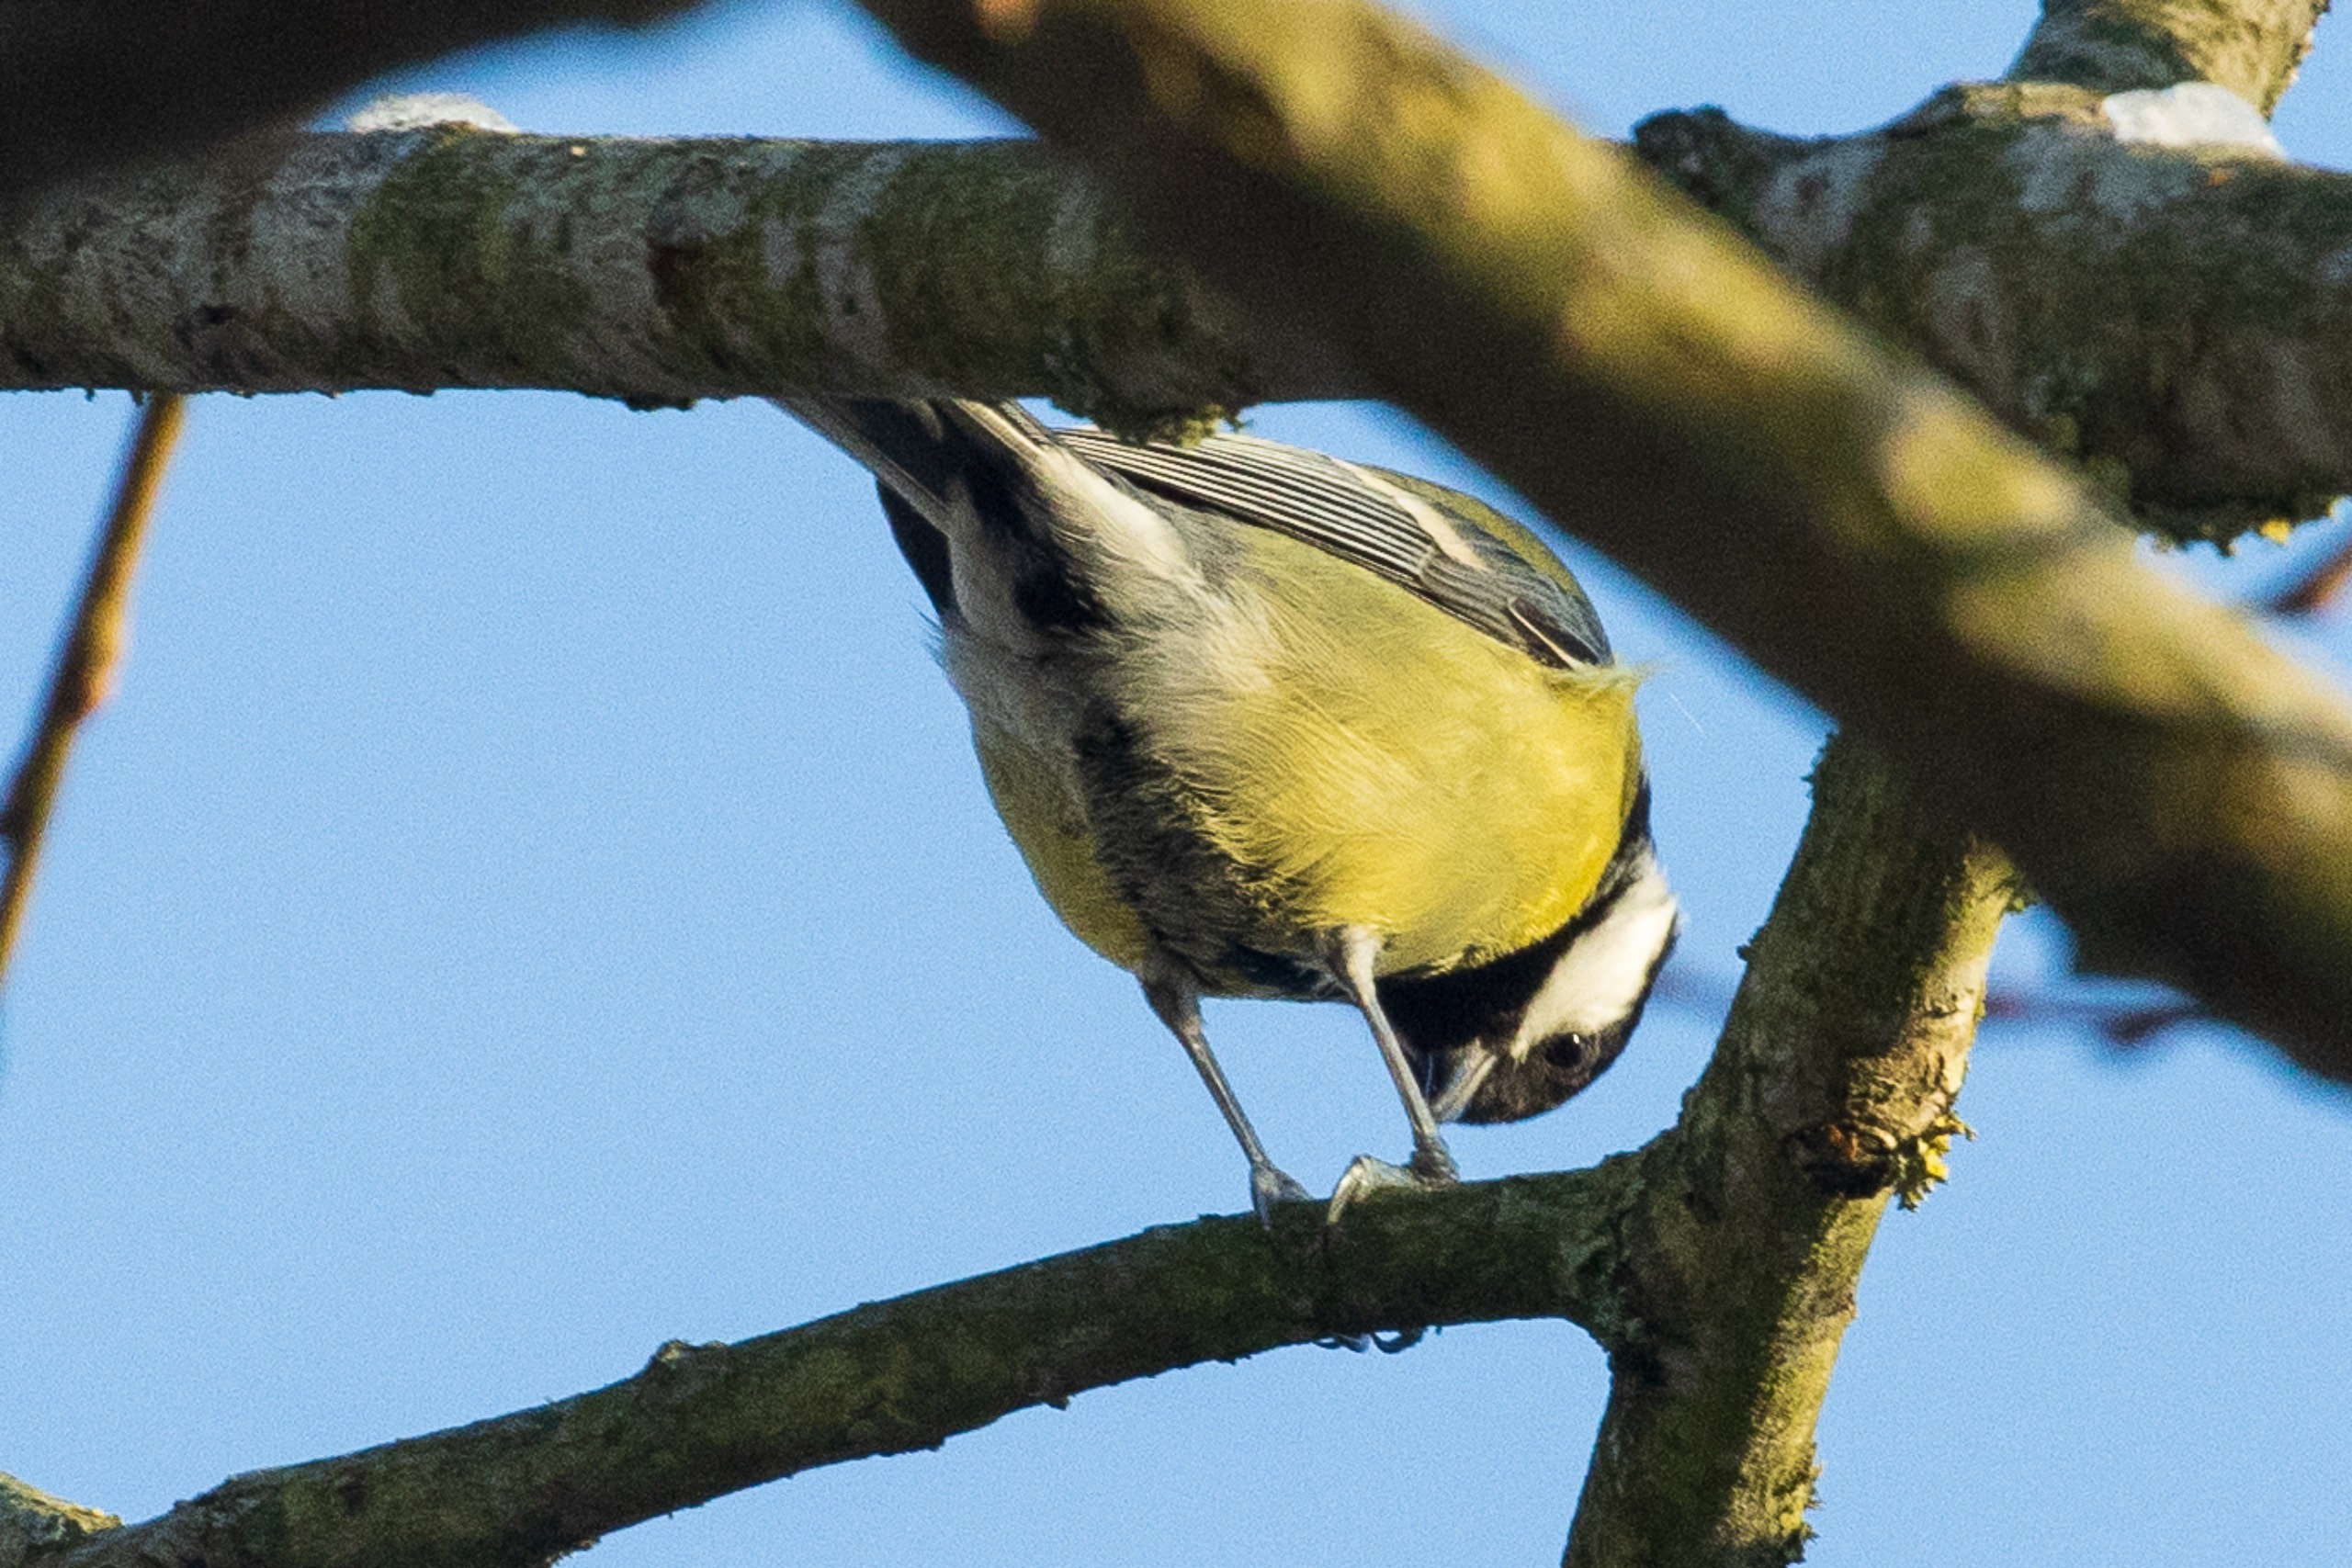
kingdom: Animalia
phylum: Chordata
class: Aves
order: Passeriformes
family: Paridae
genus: Parus
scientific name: Parus major
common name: Musvit
